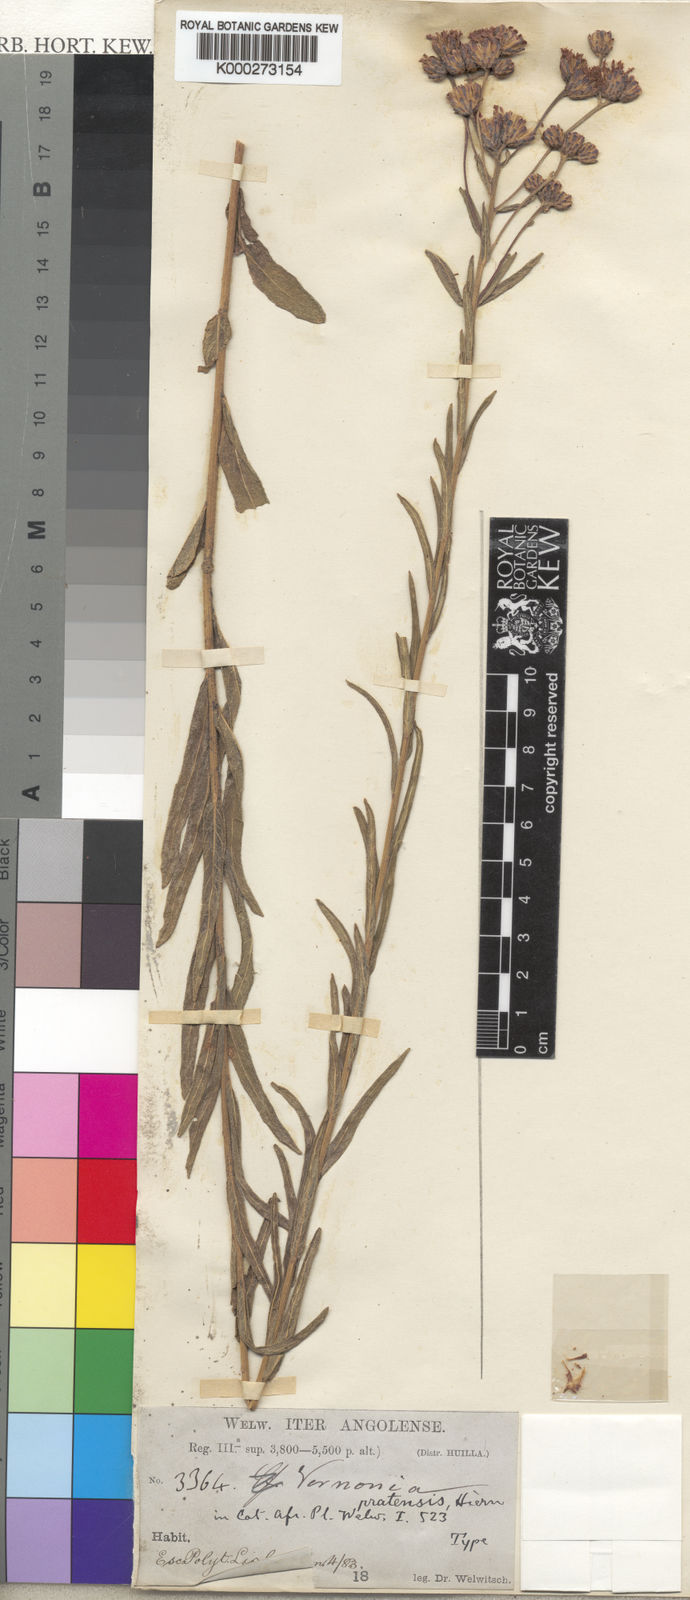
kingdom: Plantae
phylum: Tracheophyta
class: Magnoliopsida
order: Asterales
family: Asteraceae
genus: Vernonia
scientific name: Vernonia kandtii
